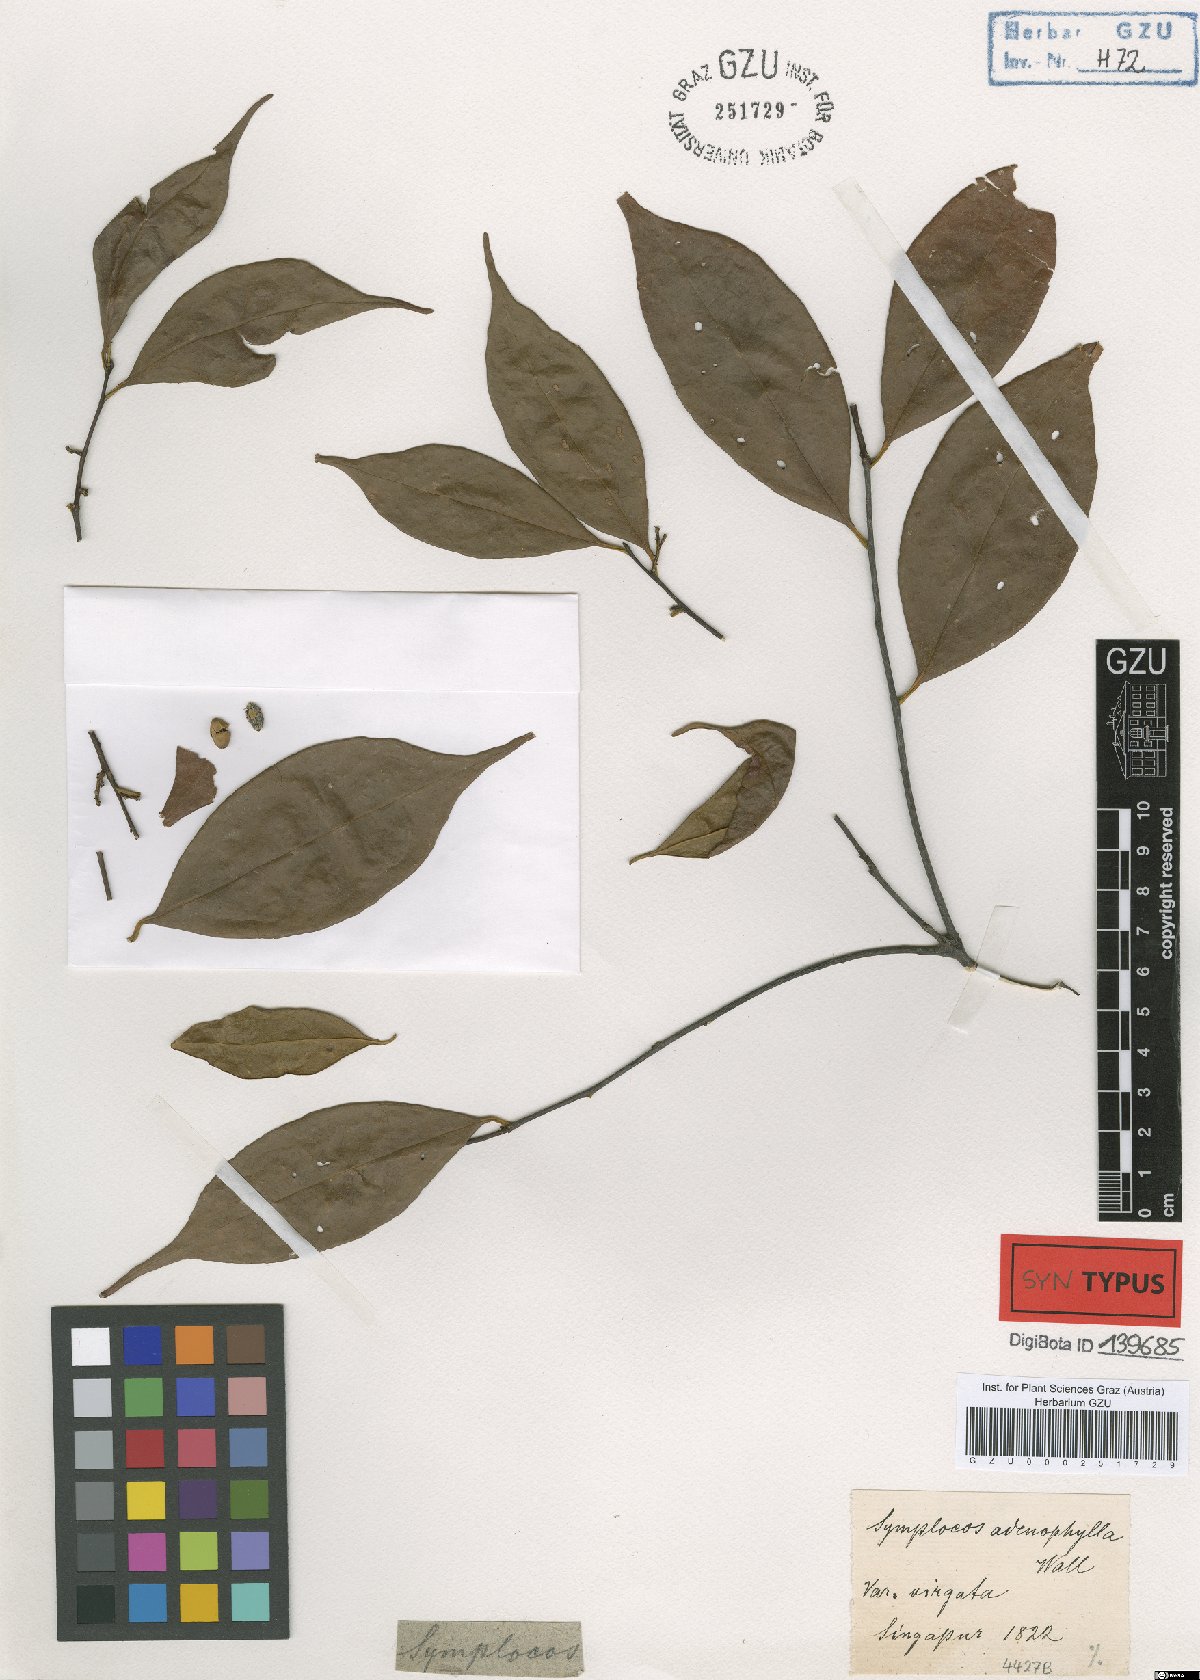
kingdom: Plantae
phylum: Tracheophyta
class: Magnoliopsida
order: Ericales
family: Symplocaceae
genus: Symplocos
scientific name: Symplocos adenophylla
